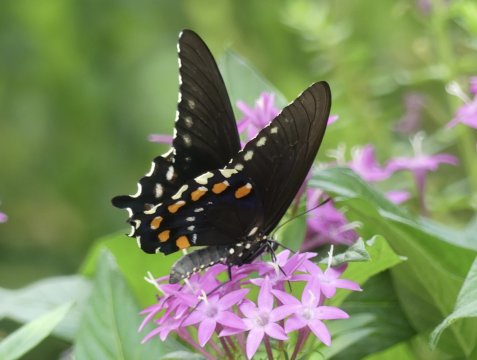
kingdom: Animalia
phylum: Arthropoda
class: Insecta
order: Lepidoptera
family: Papilionidae
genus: Battus
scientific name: Battus philenor
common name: Pipevine Swallowtail
